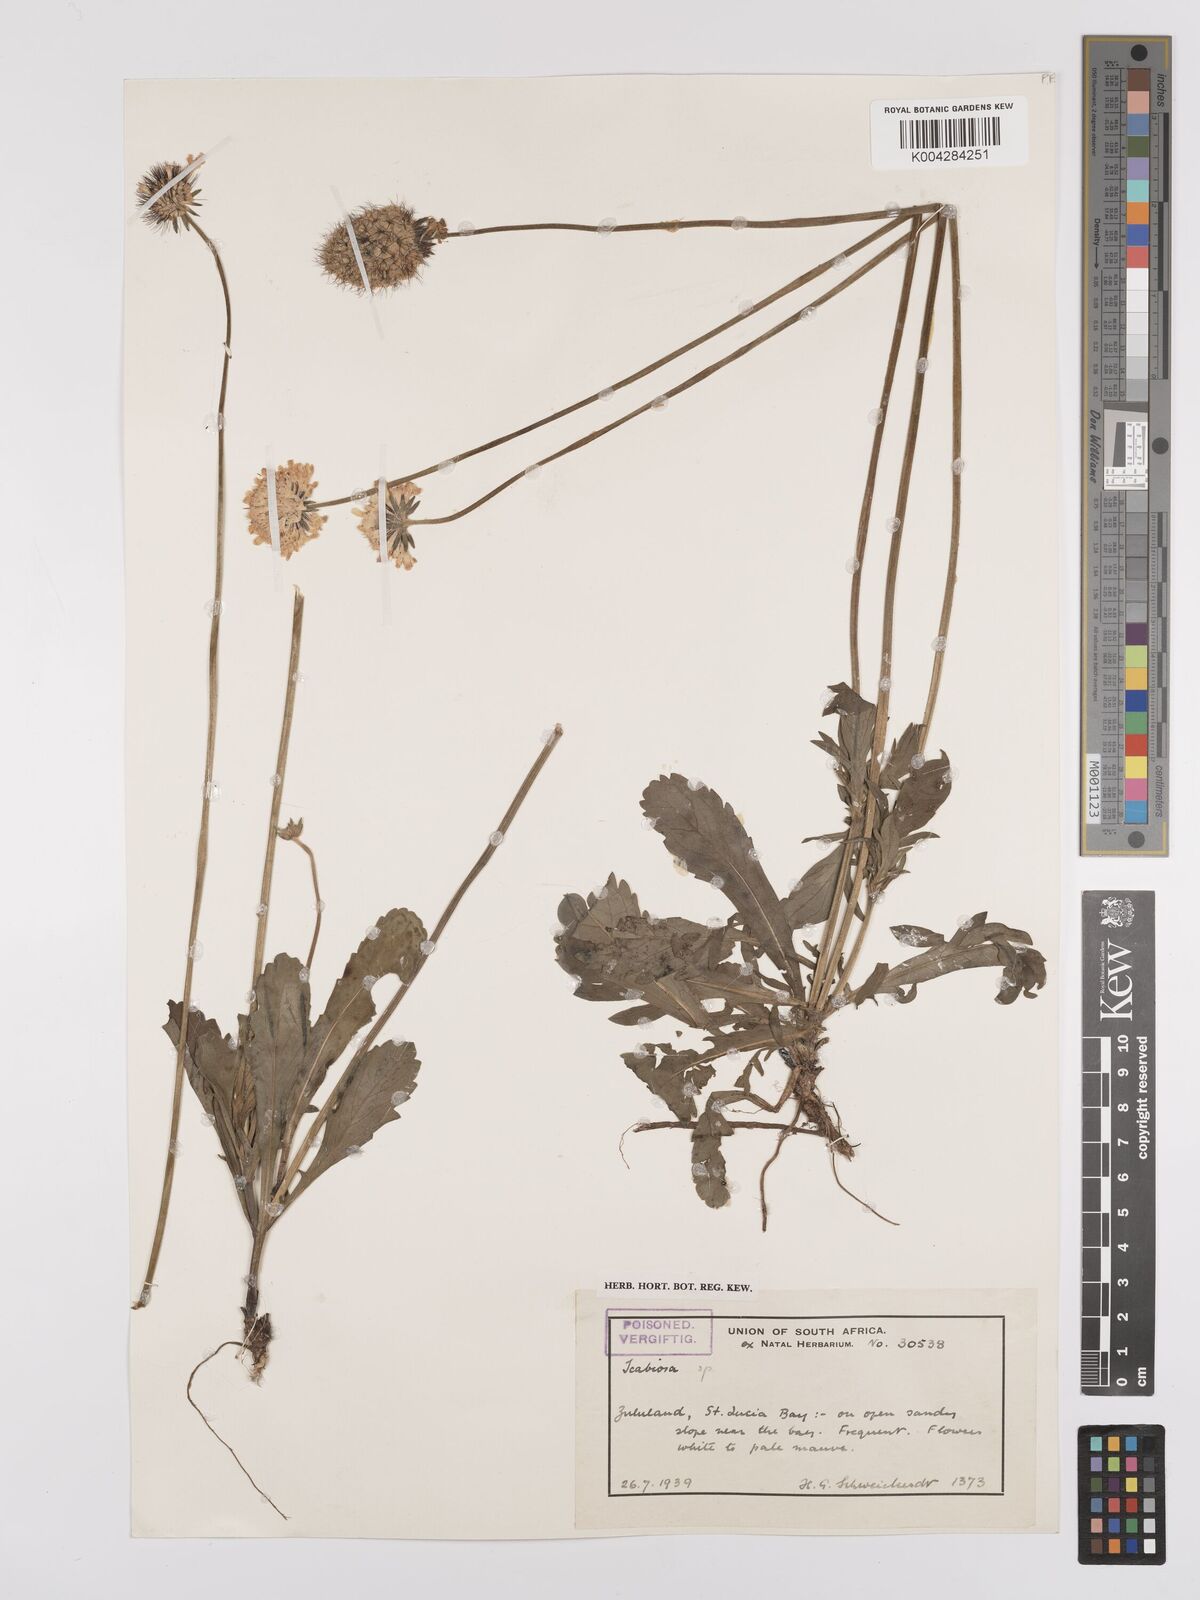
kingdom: Plantae
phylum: Tracheophyta
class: Magnoliopsida
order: Dipsacales
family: Caprifoliaceae
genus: Scabiosa
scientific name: Scabiosa columbaria
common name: Small scabious
